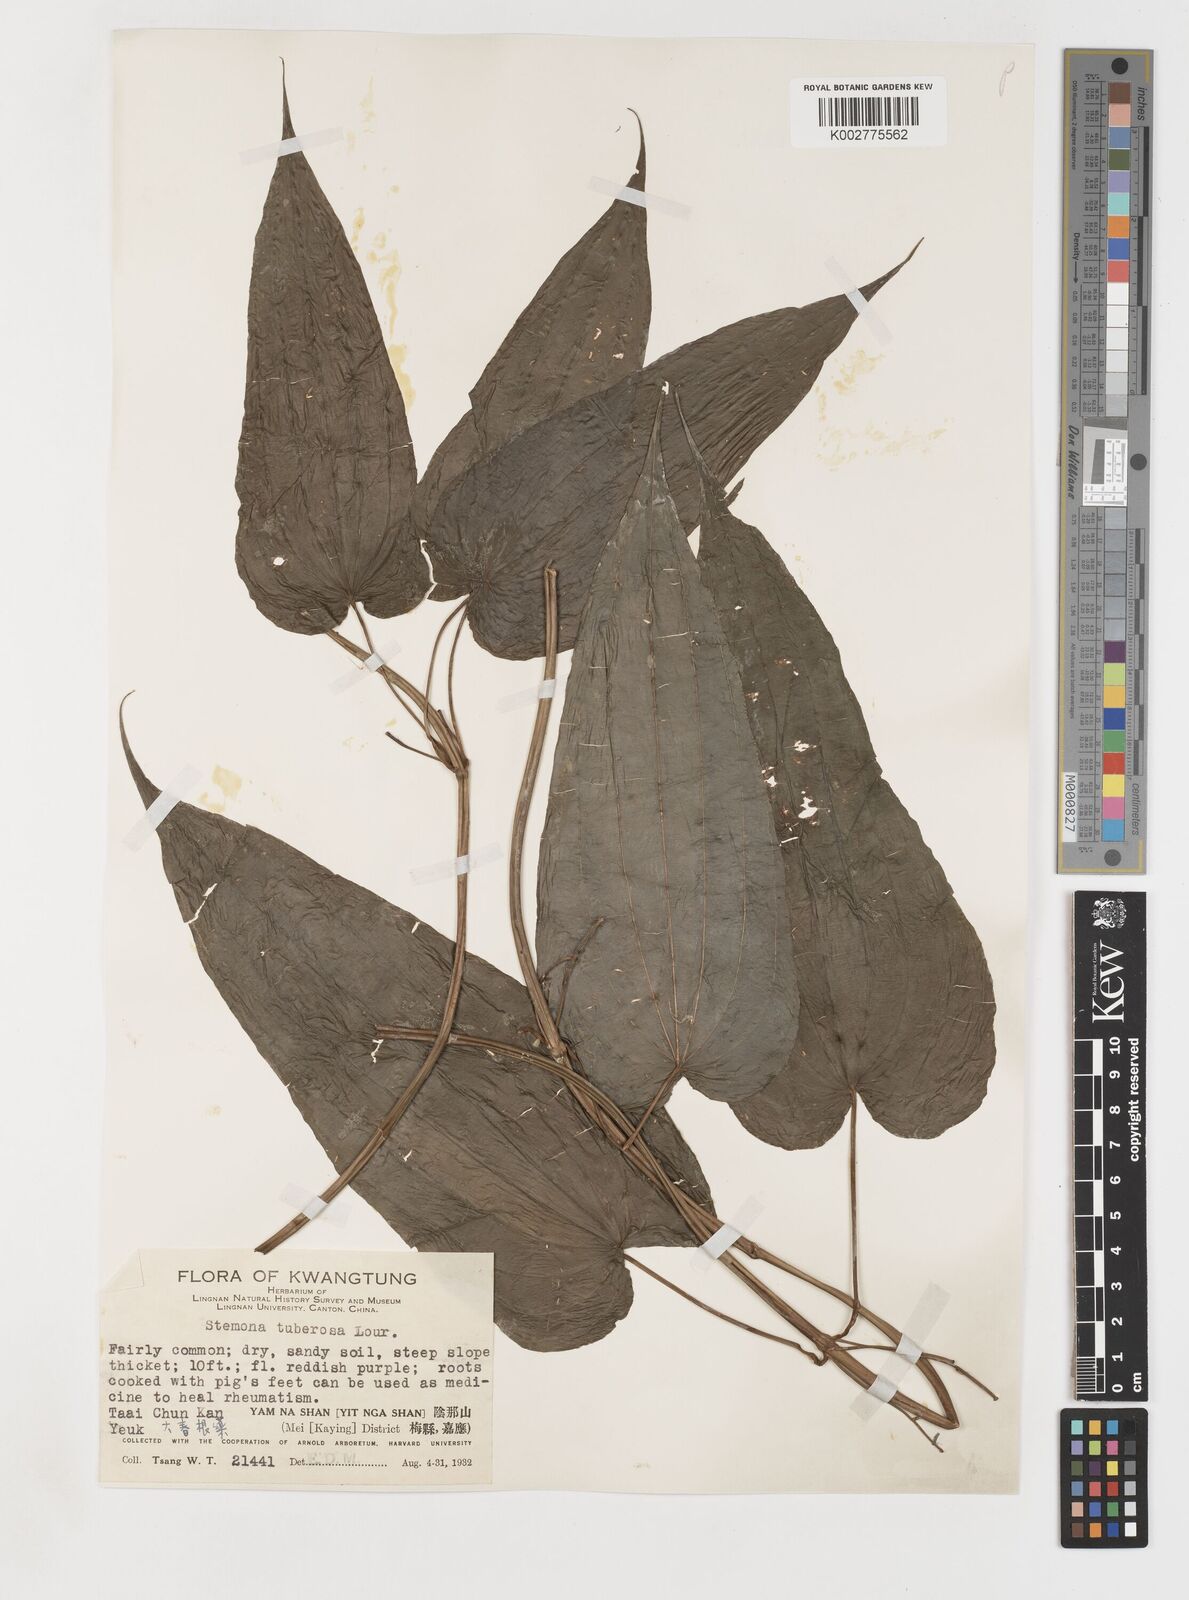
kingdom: Plantae
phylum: Tracheophyta
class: Liliopsida
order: Pandanales
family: Stemonaceae
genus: Stemona
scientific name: Stemona tuberosa
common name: Stemona
